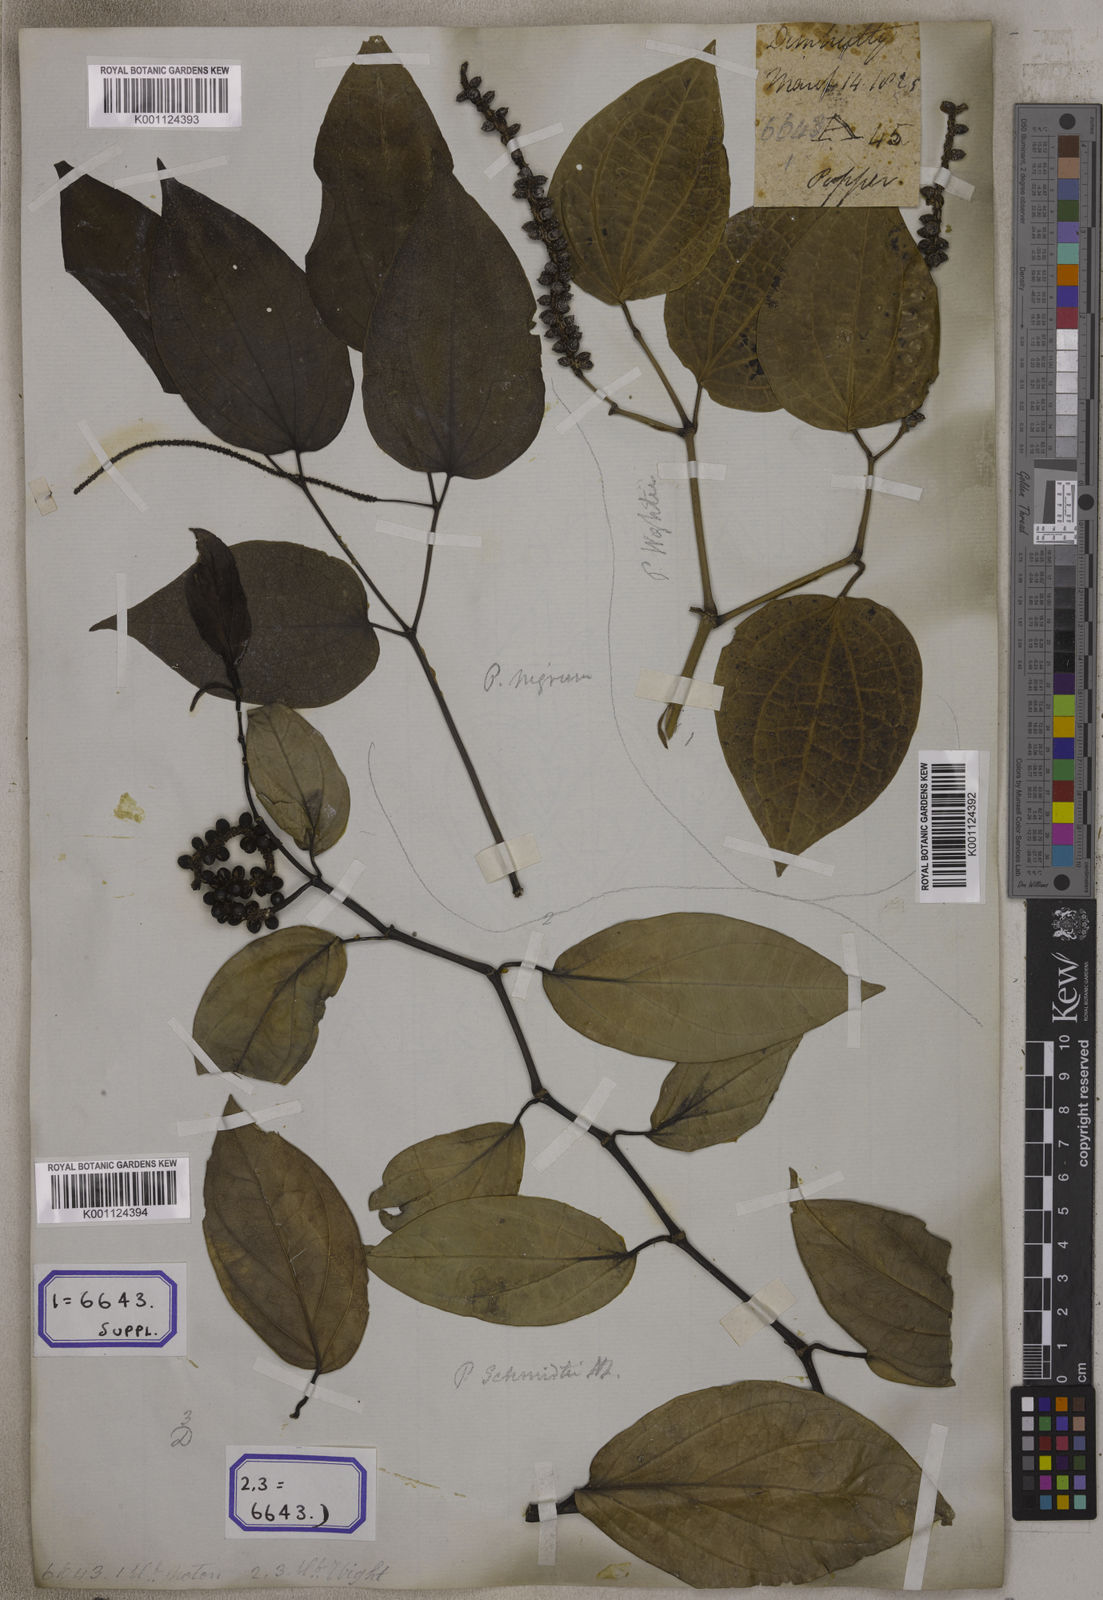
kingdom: Plantae
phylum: Tracheophyta
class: Magnoliopsida
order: Piperales
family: Piperaceae
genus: Piper
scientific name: Piper
